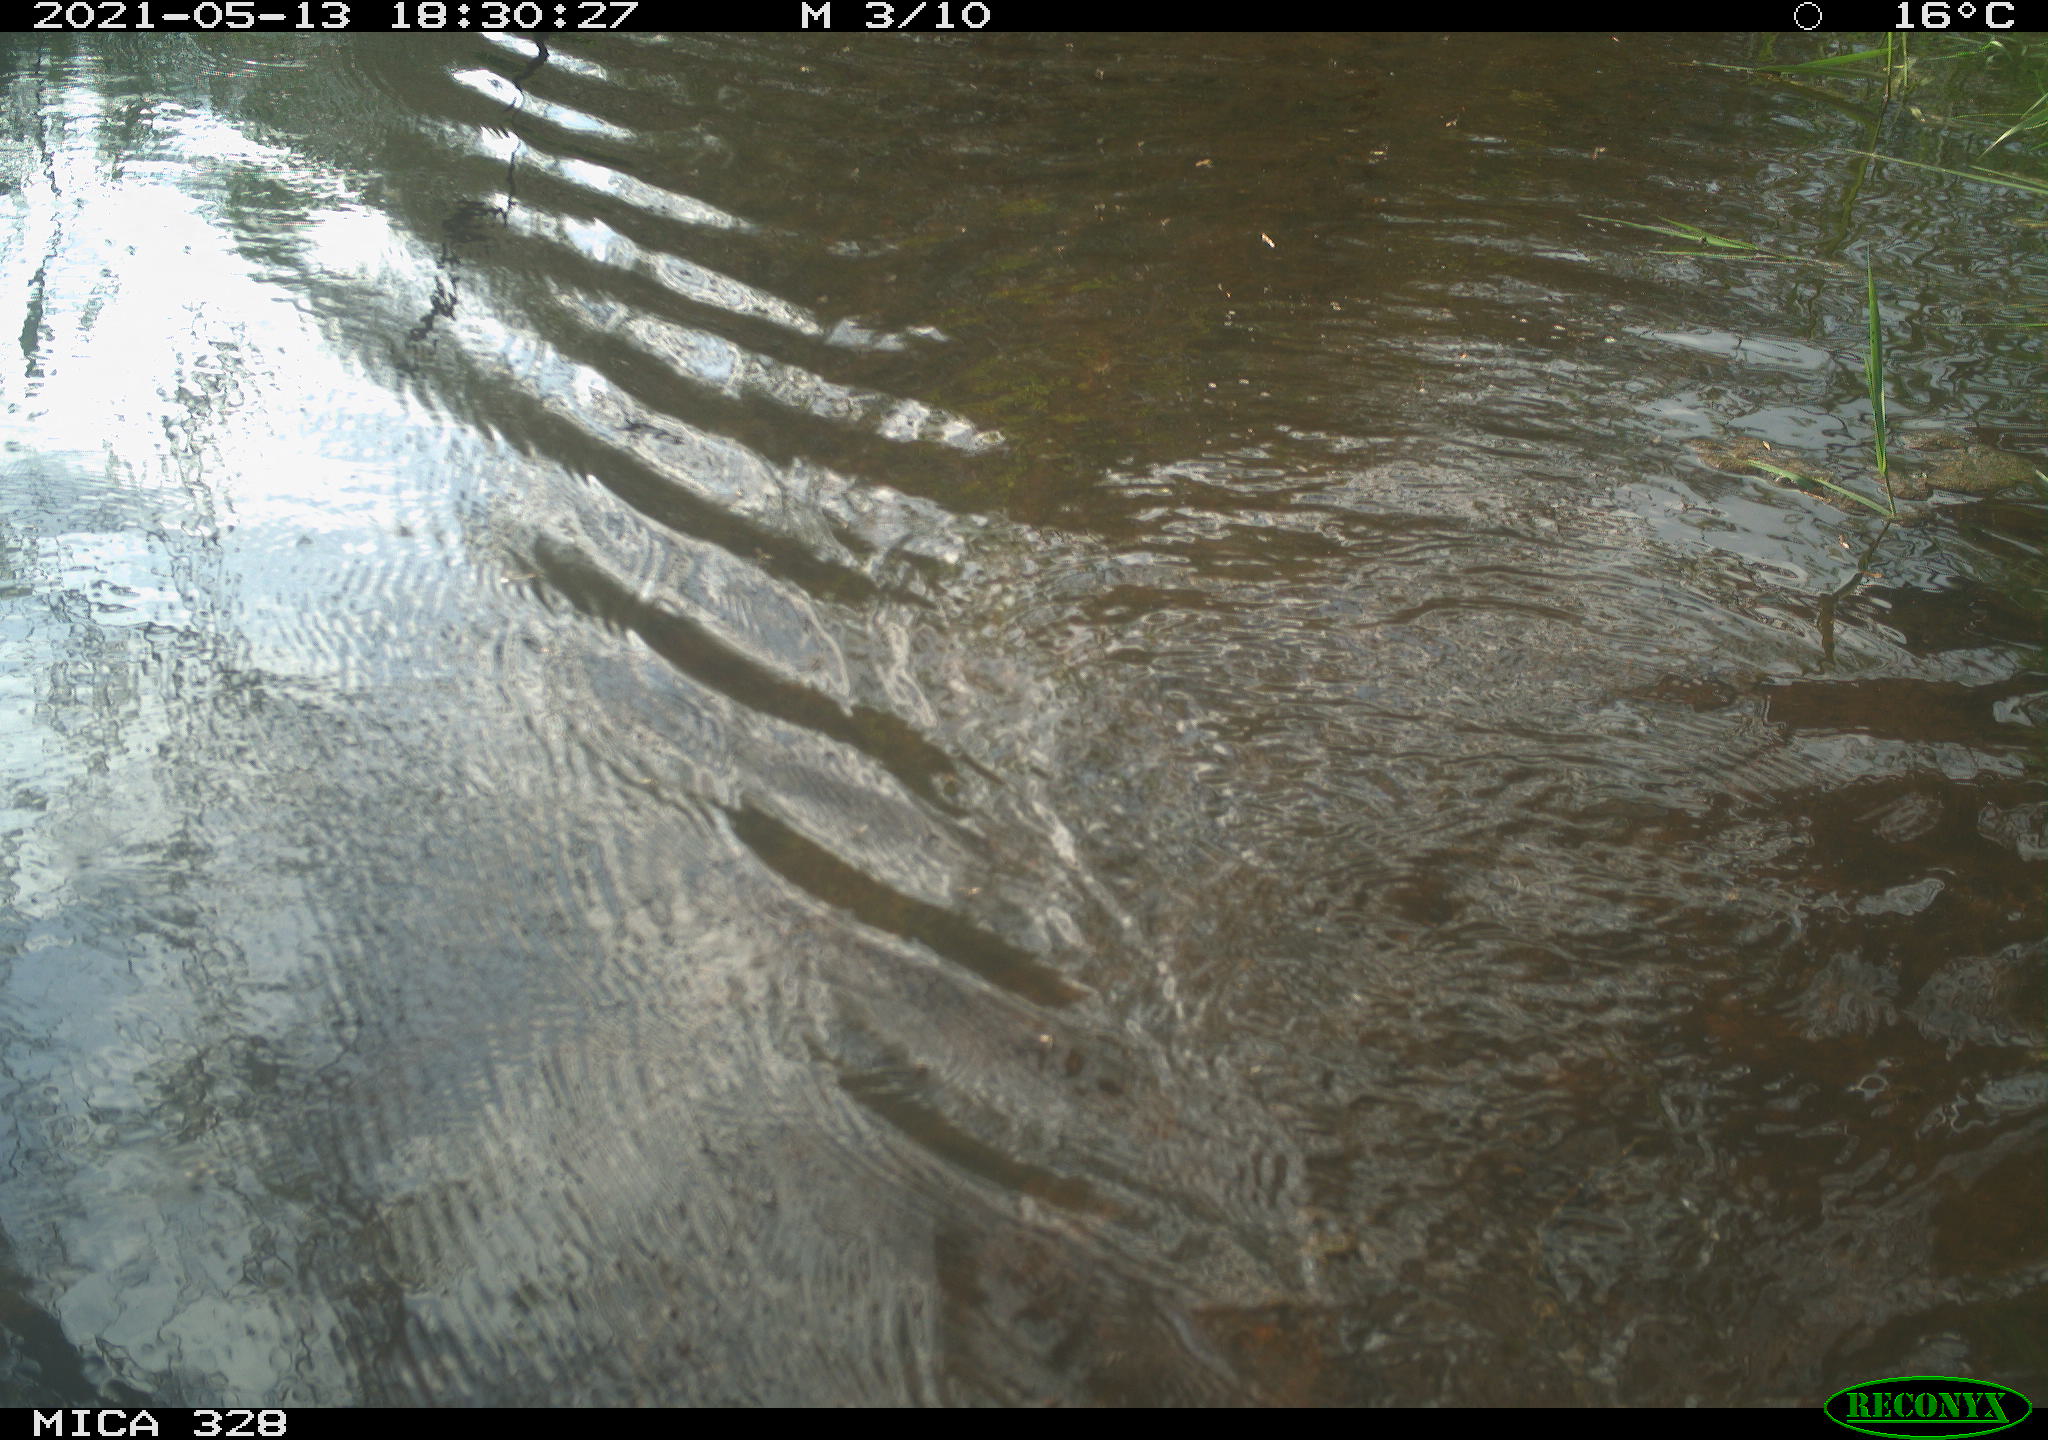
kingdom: Animalia
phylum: Chordata
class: Mammalia
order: Rodentia
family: Cricetidae
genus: Ondatra
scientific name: Ondatra zibethicus
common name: Muskrat
